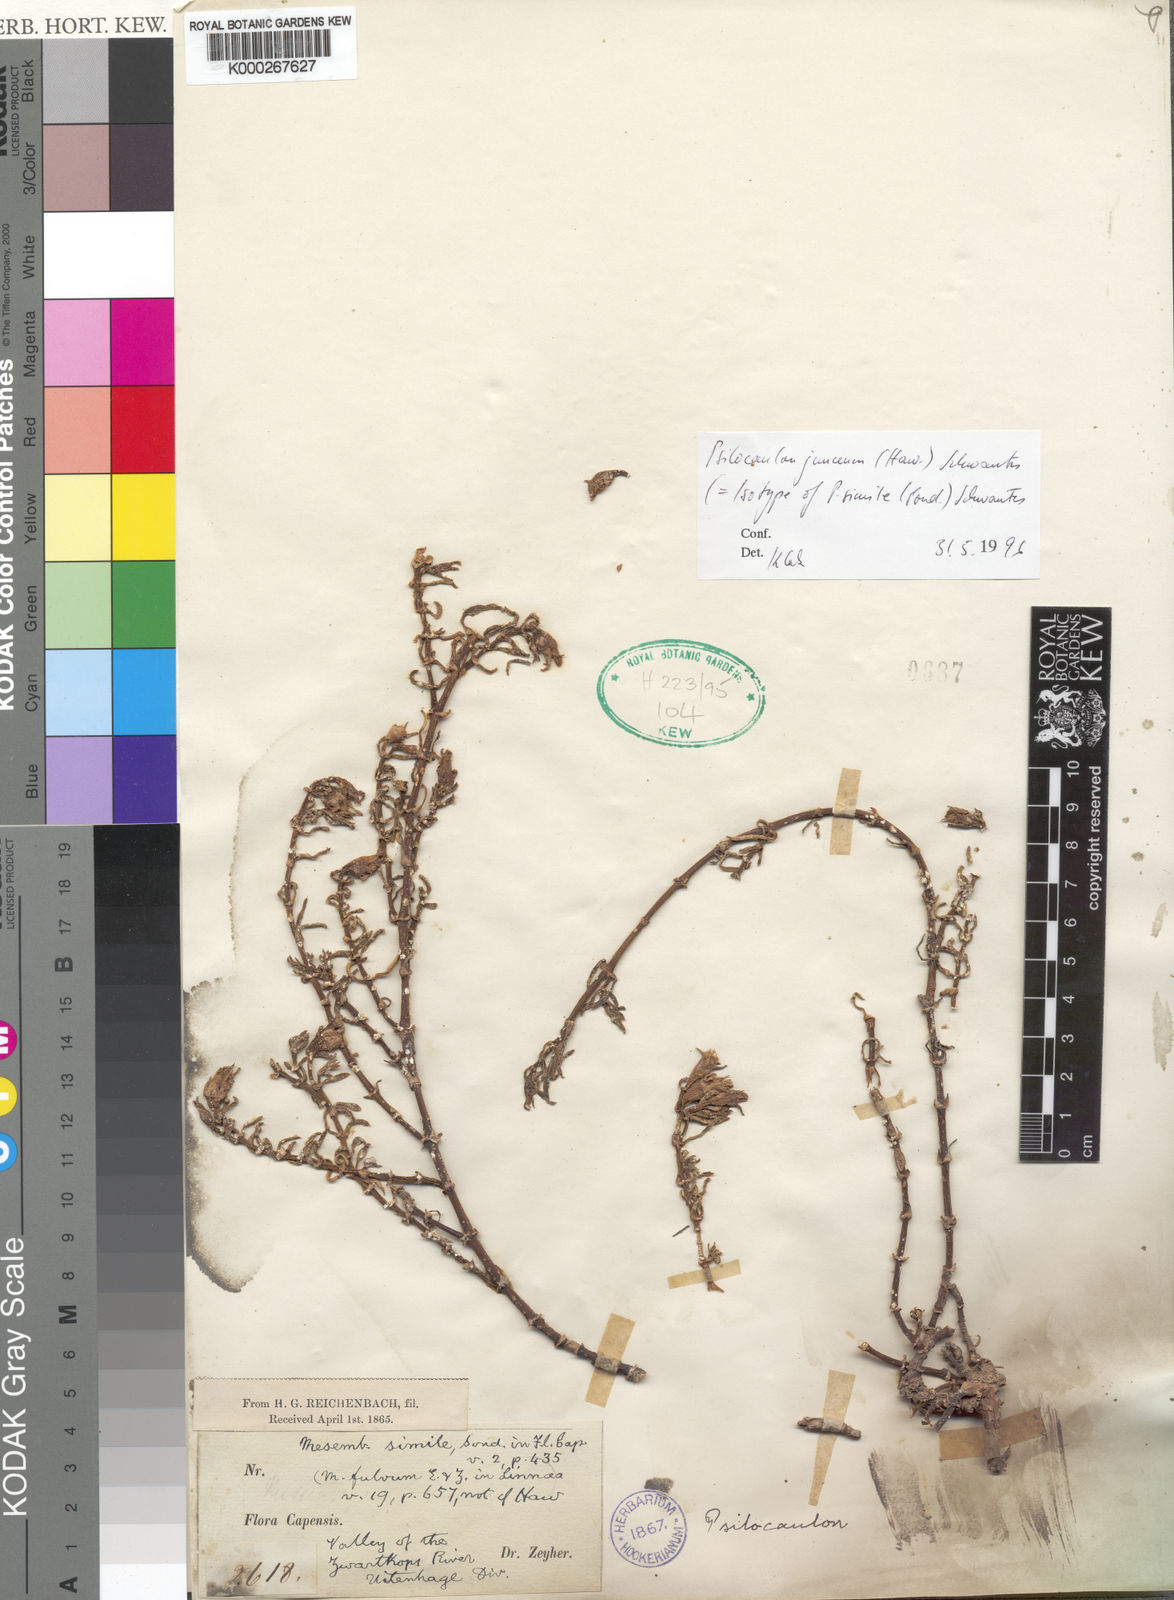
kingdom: Plantae
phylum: Tracheophyta
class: Magnoliopsida
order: Caryophyllales
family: Aizoaceae
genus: Mesembryanthemum
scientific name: Mesembryanthemum junceum
